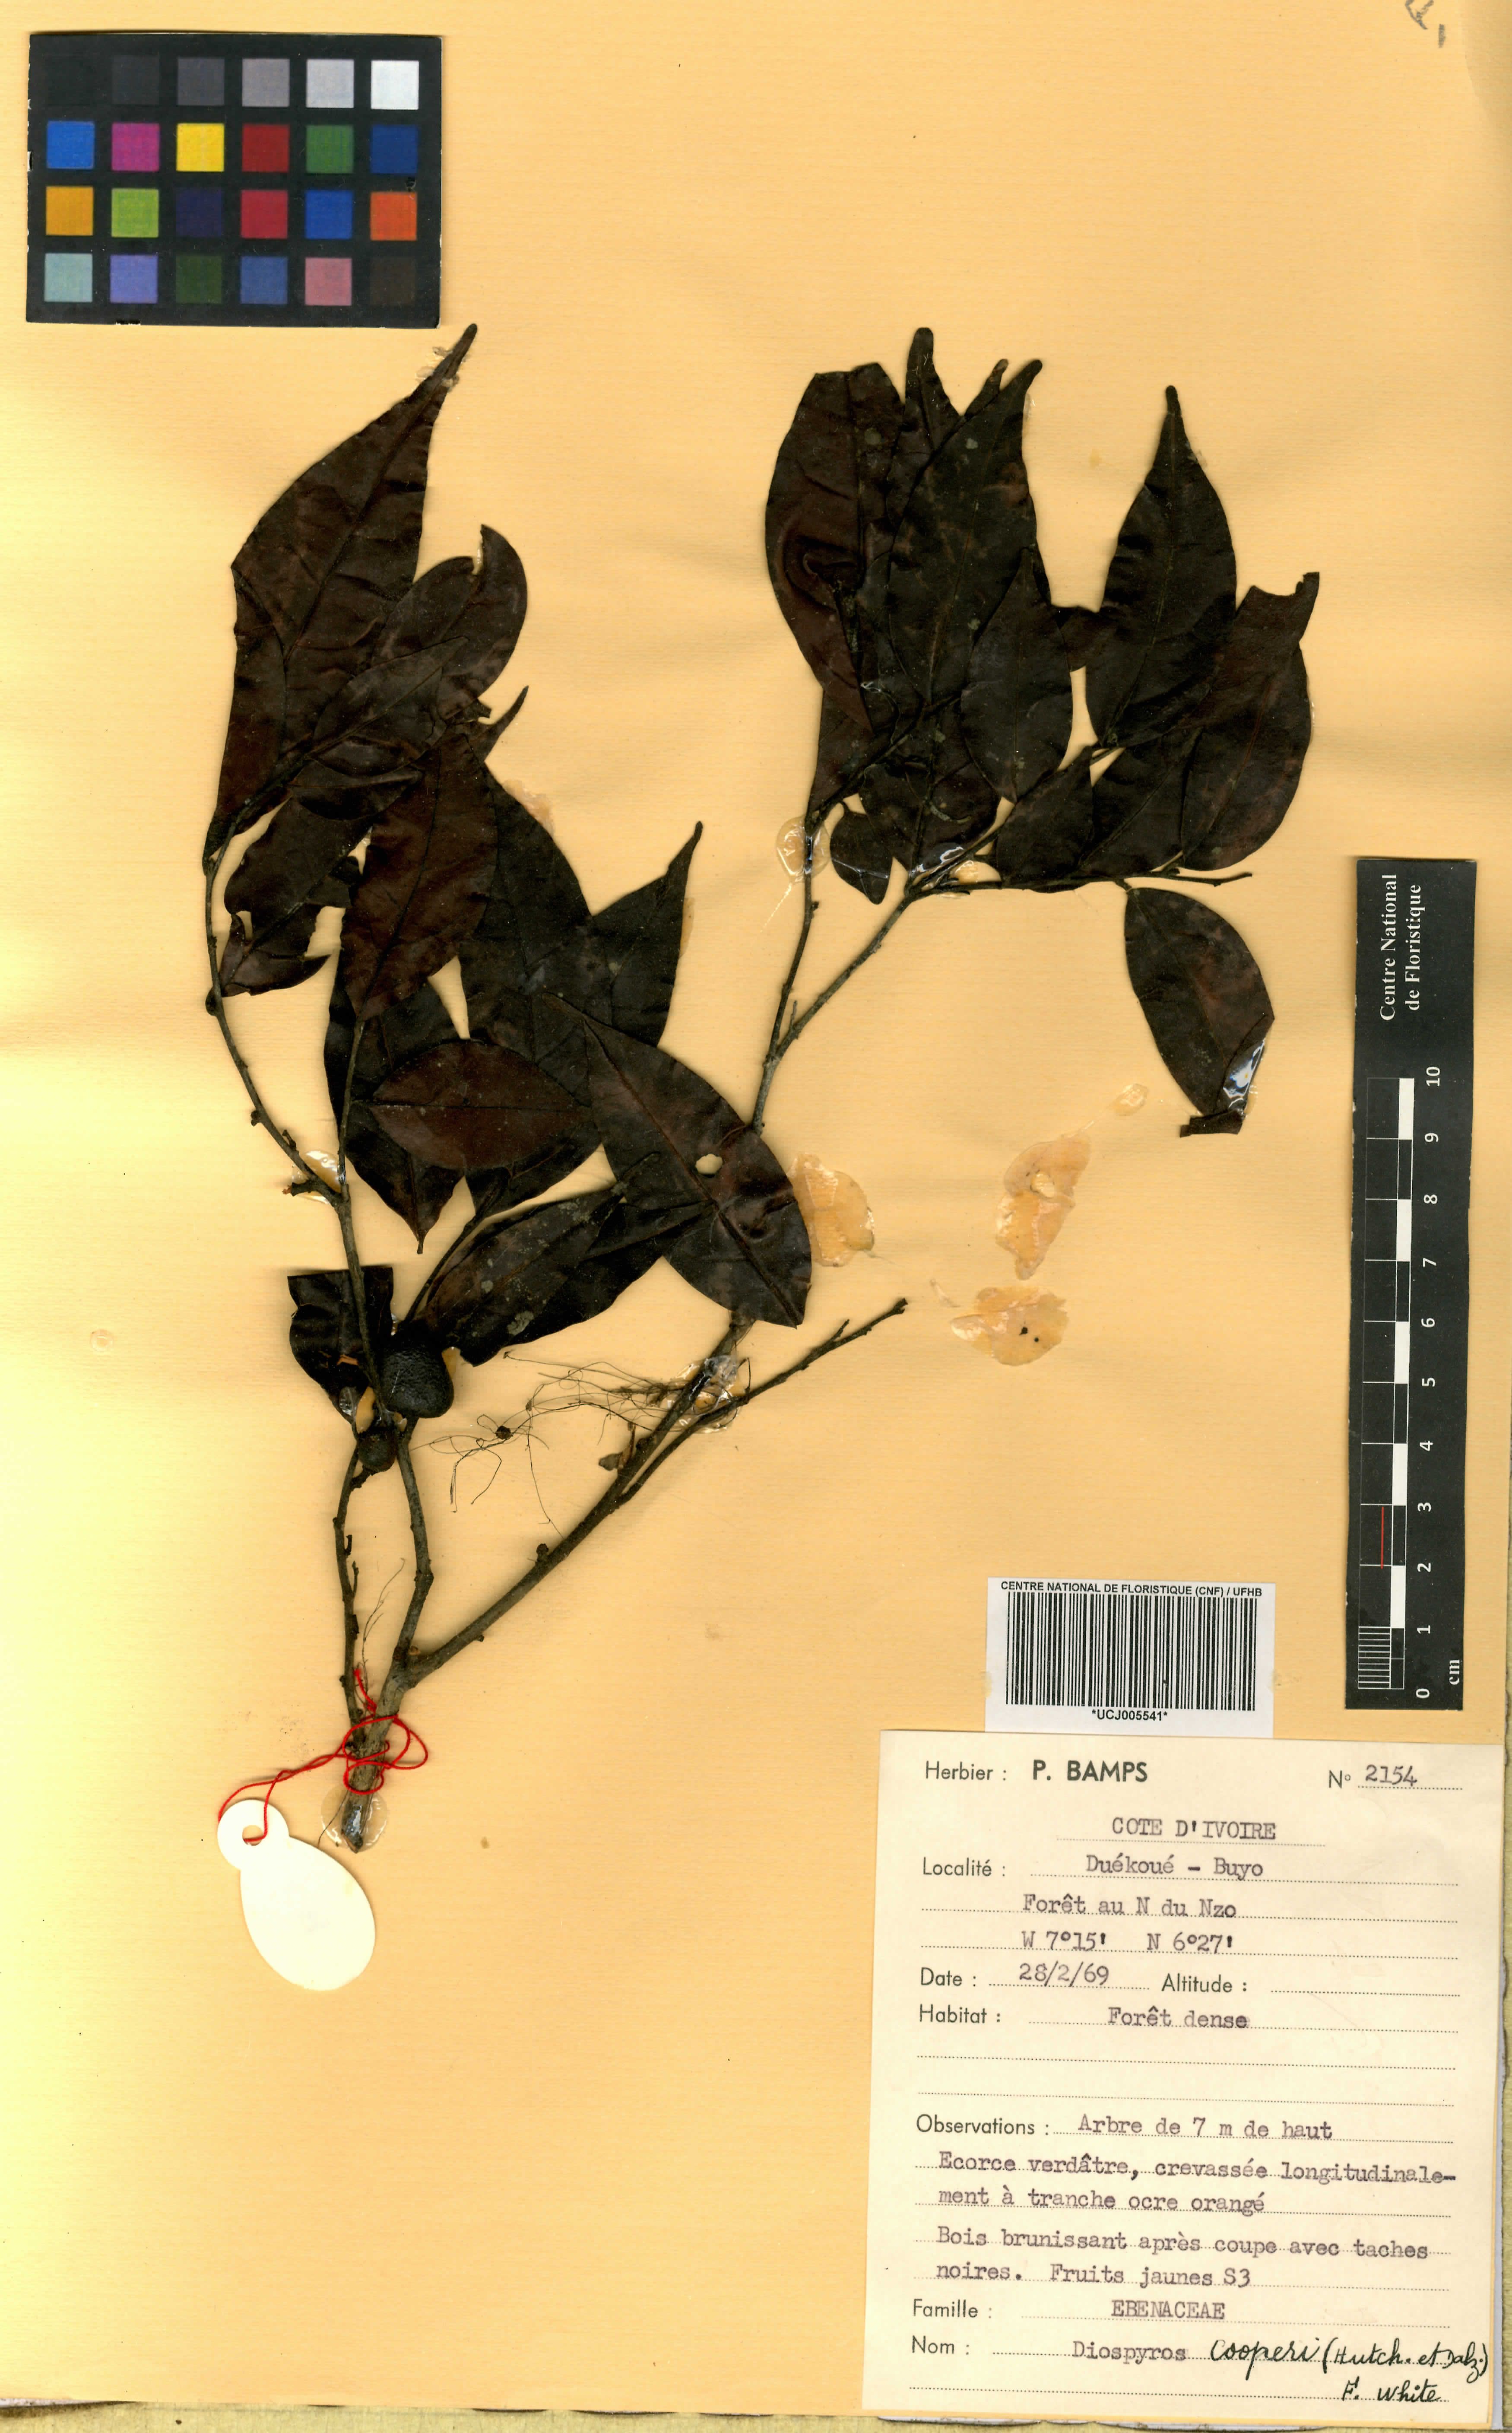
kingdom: Plantae
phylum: Tracheophyta
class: Magnoliopsida
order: Ericales
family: Ebenaceae
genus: Diospyros
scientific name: Diospyros cooperi
